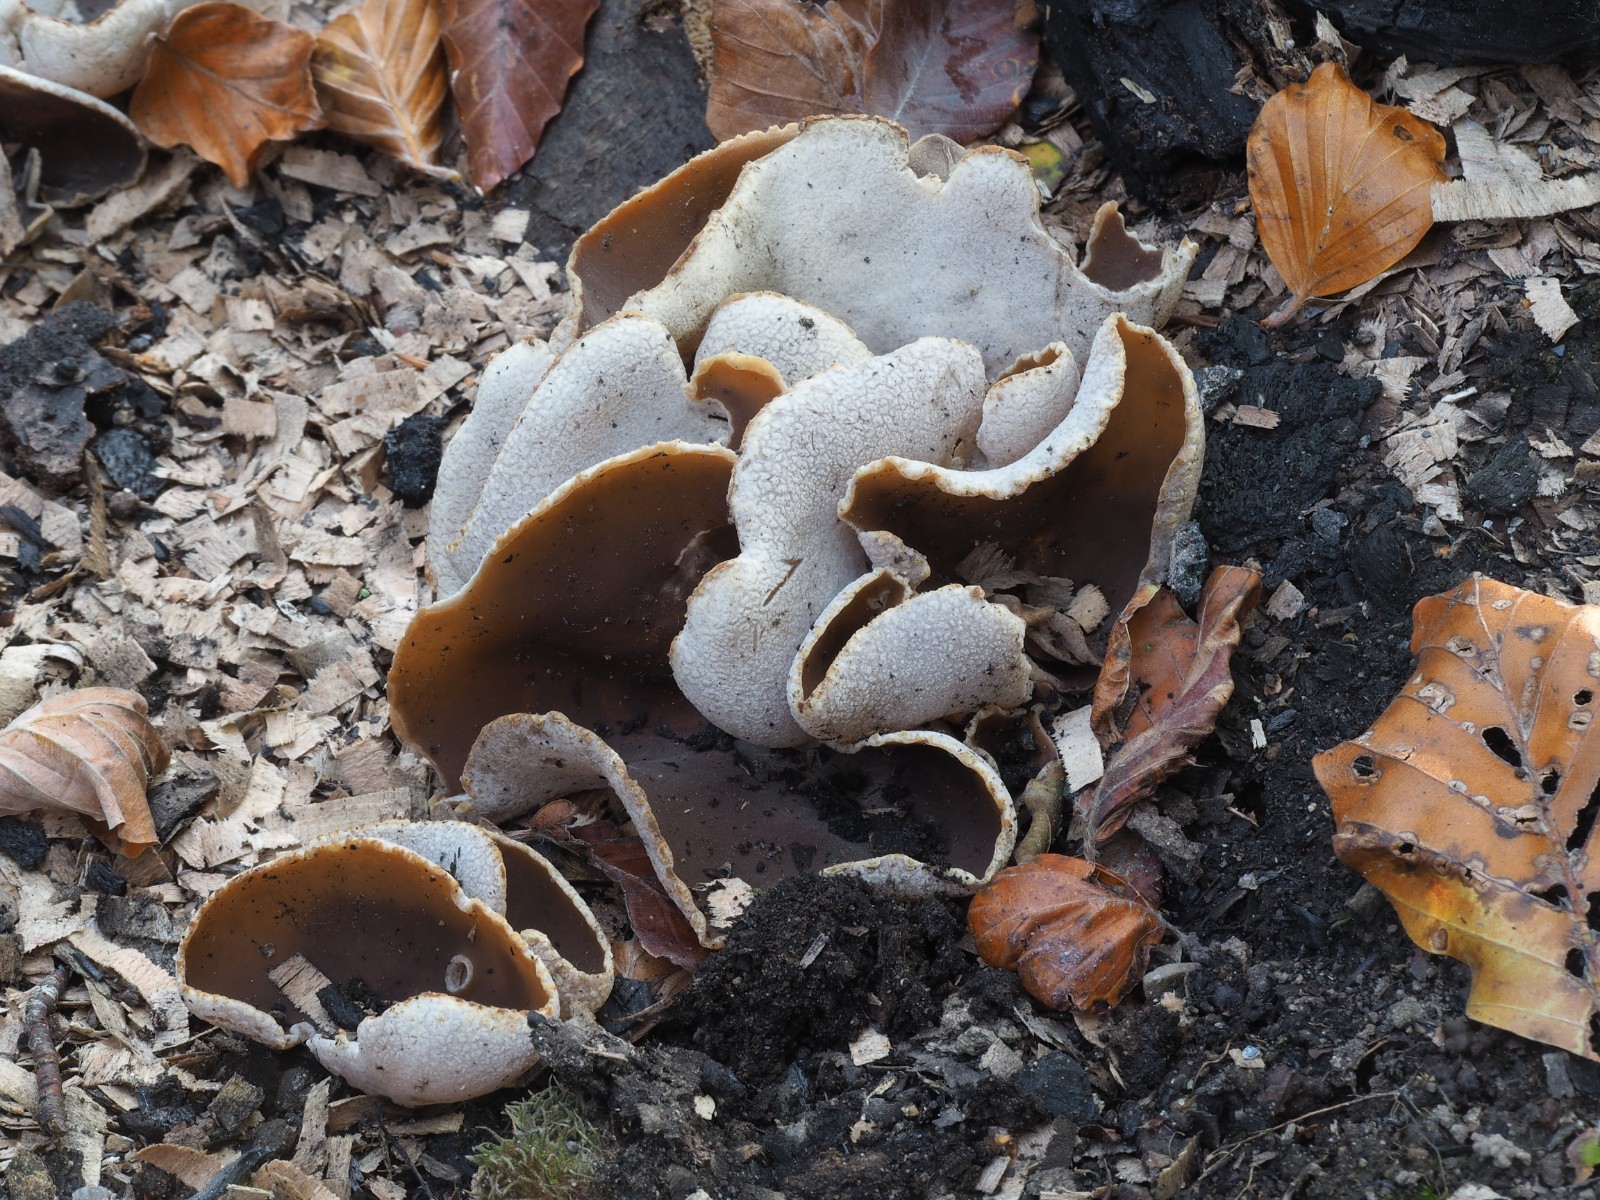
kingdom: Fungi
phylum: Ascomycota
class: Pezizomycetes
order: Pezizales
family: Pezizaceae
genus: Peziza
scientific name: Peziza varia
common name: Ved-bægersvamp
